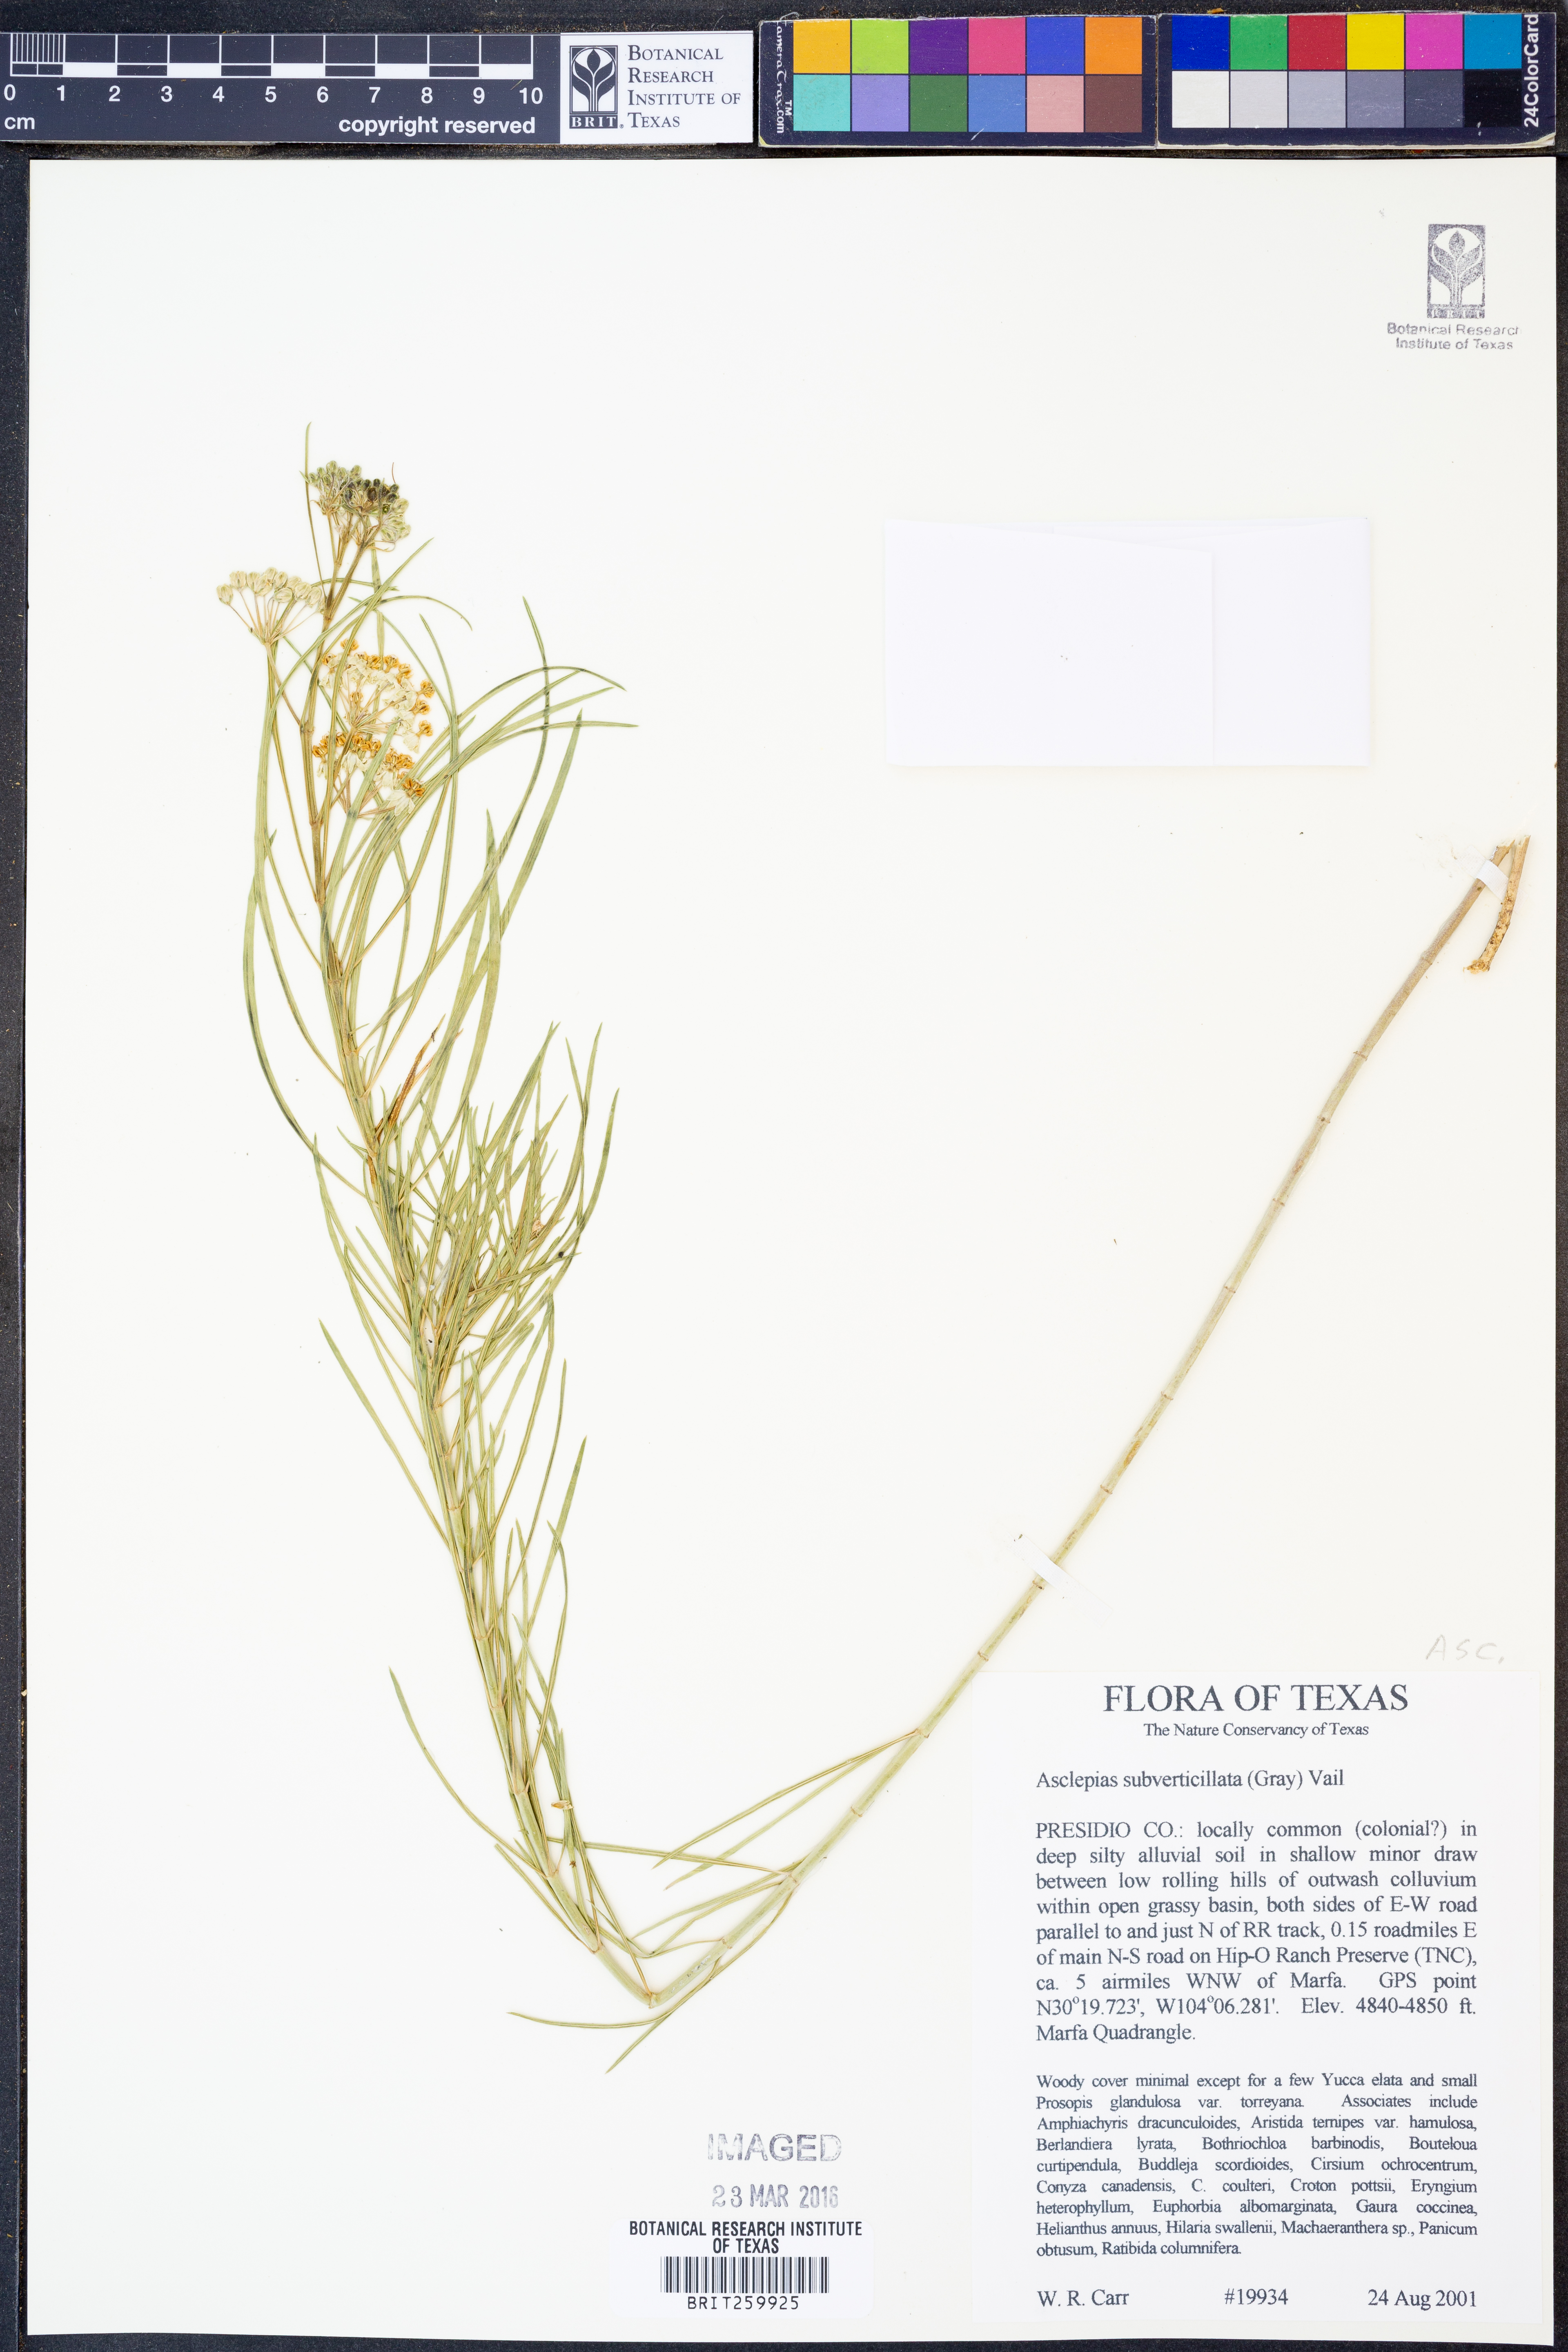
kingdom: Plantae
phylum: Tracheophyta
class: Magnoliopsida
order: Gentianales
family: Apocynaceae
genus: Asclepias
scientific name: Asclepias subverticillata
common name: Horsetail milkweed
